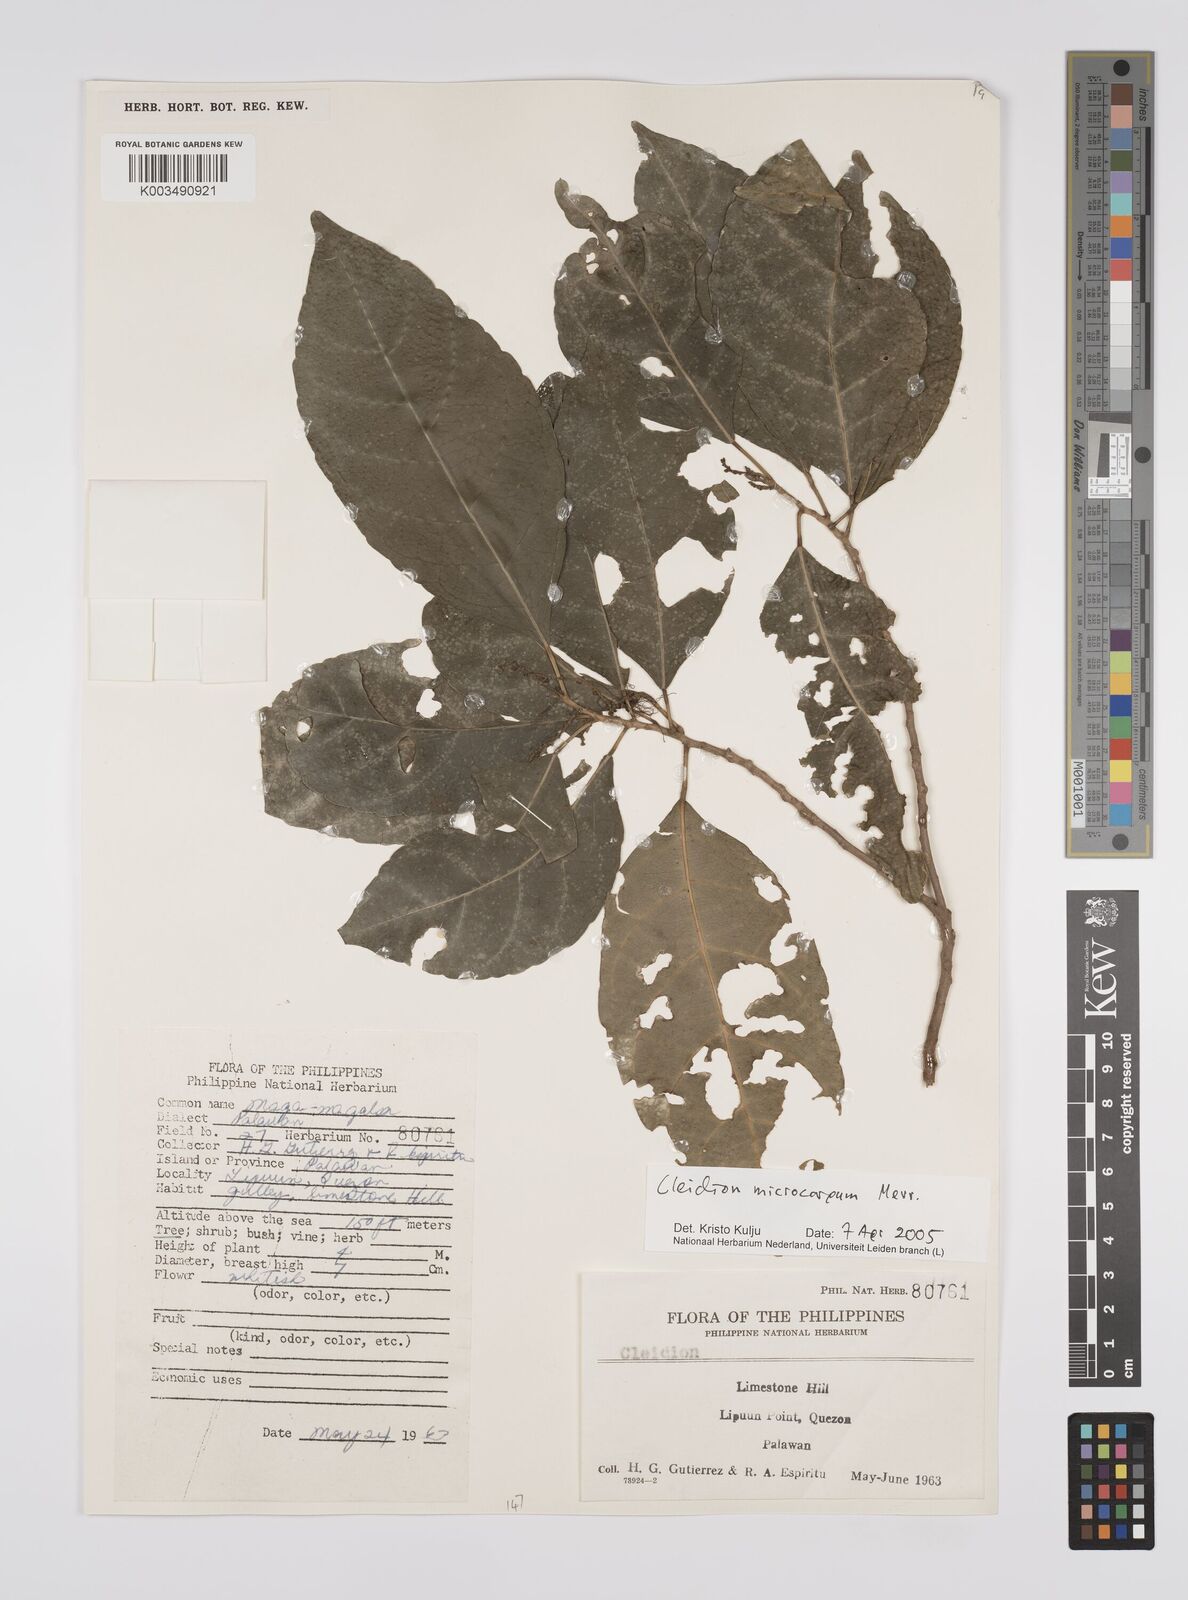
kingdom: Plantae
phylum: Tracheophyta
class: Magnoliopsida
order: Malpighiales
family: Euphorbiaceae
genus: Cleidion
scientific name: Cleidion microcarpum
